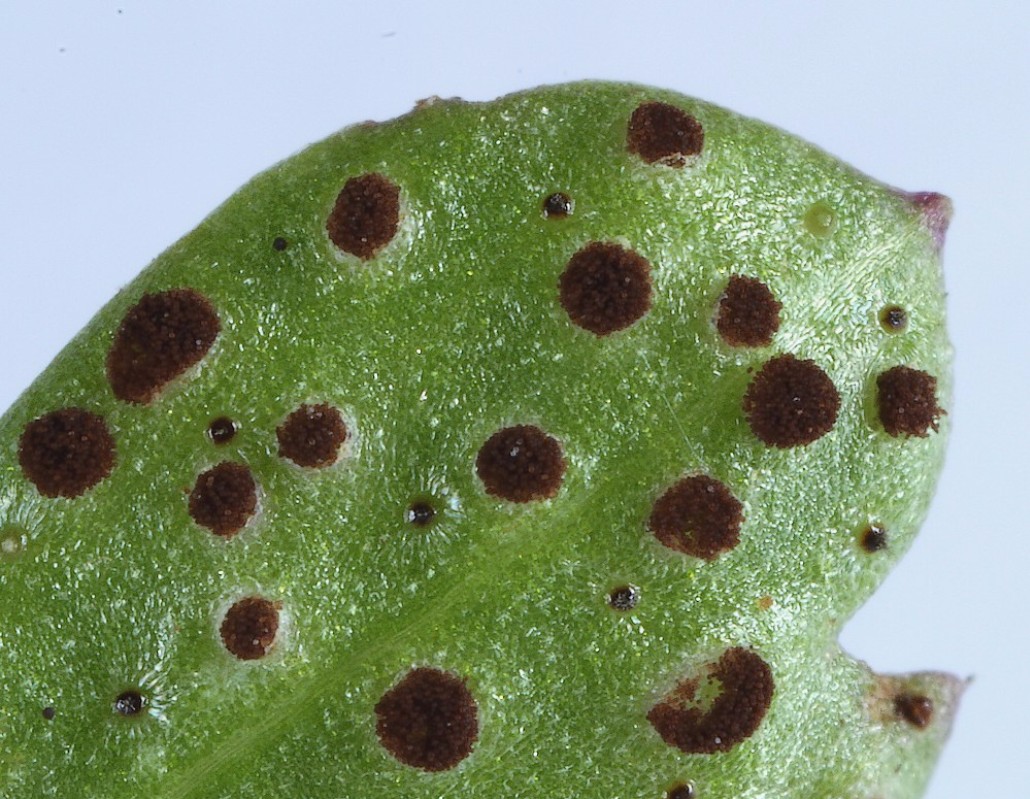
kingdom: Fungi
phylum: Basidiomycota
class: Pucciniomycetes
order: Pucciniales
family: Tranzscheliaceae
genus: Tranzschelia
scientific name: Tranzschelia anemones
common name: anemone-knæksporerust
